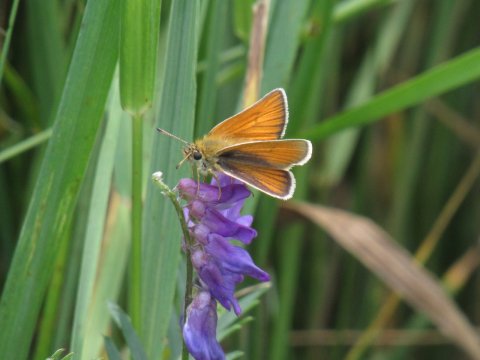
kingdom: Animalia
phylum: Arthropoda
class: Insecta
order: Lepidoptera
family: Hesperiidae
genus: Thymelicus
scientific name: Thymelicus lineola
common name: European Skipper
